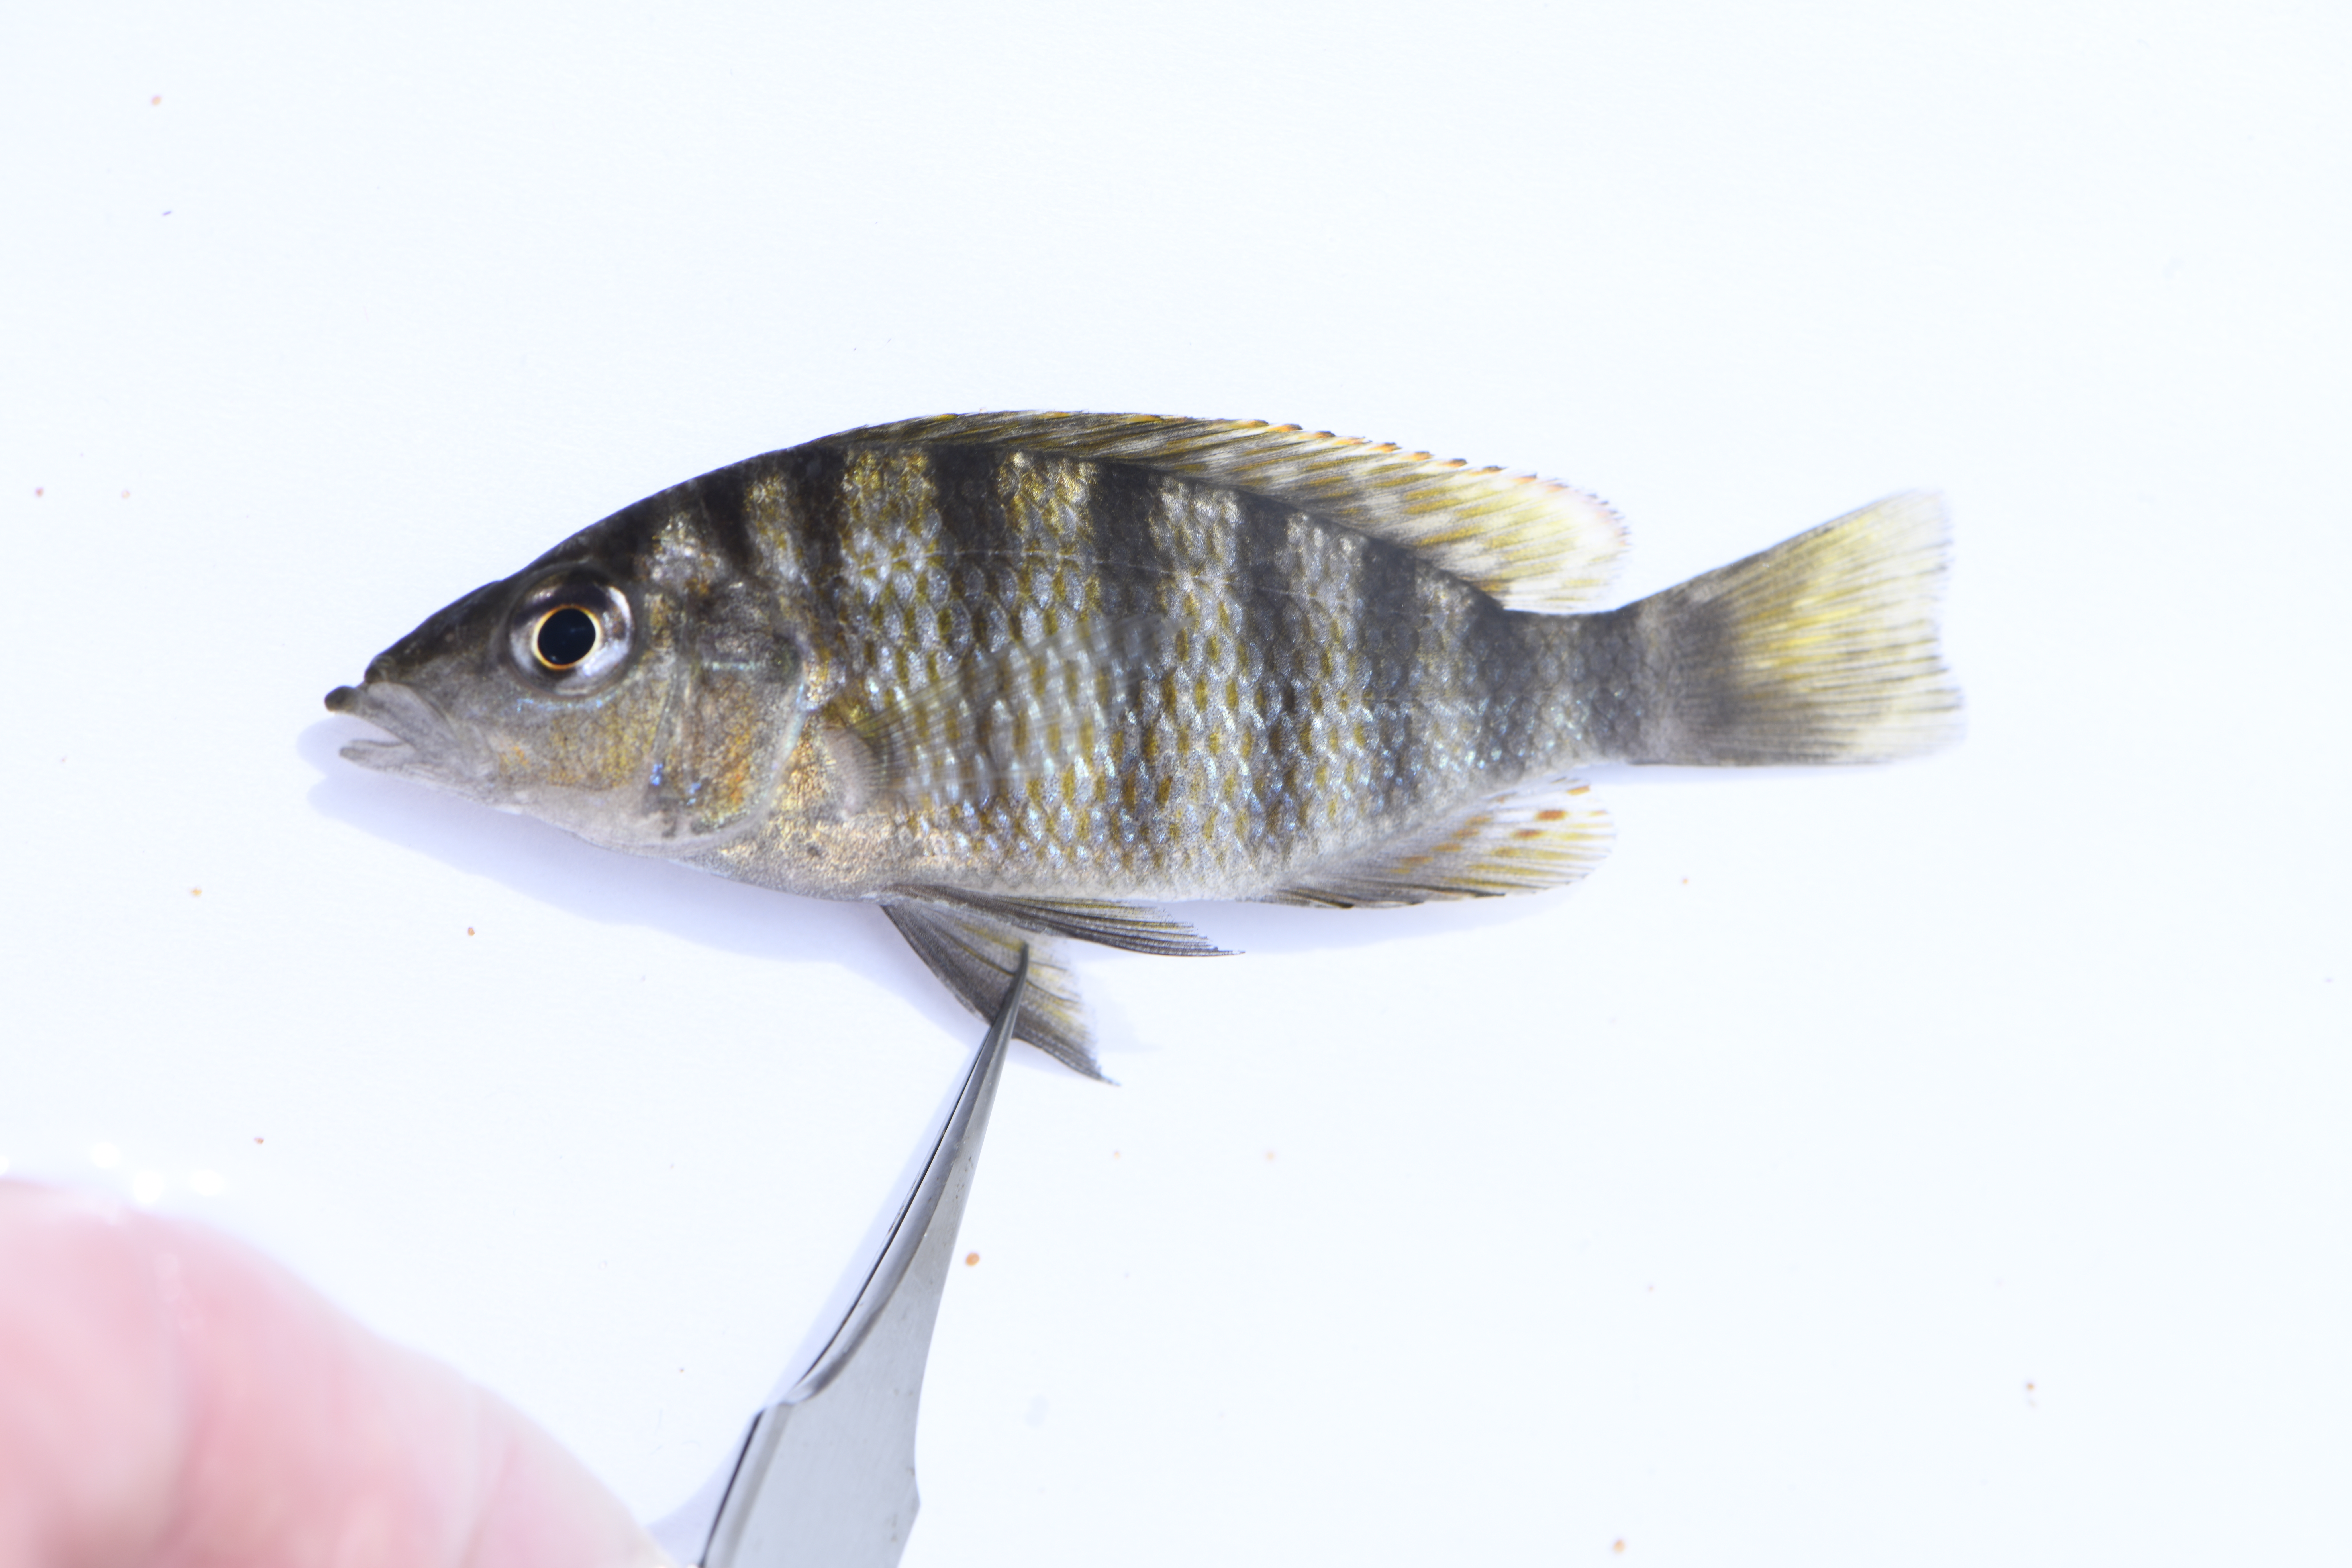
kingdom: Animalia
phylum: Chordata
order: Perciformes
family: Cichlidae
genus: Gnathochromis
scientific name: Gnathochromis pfefferi
